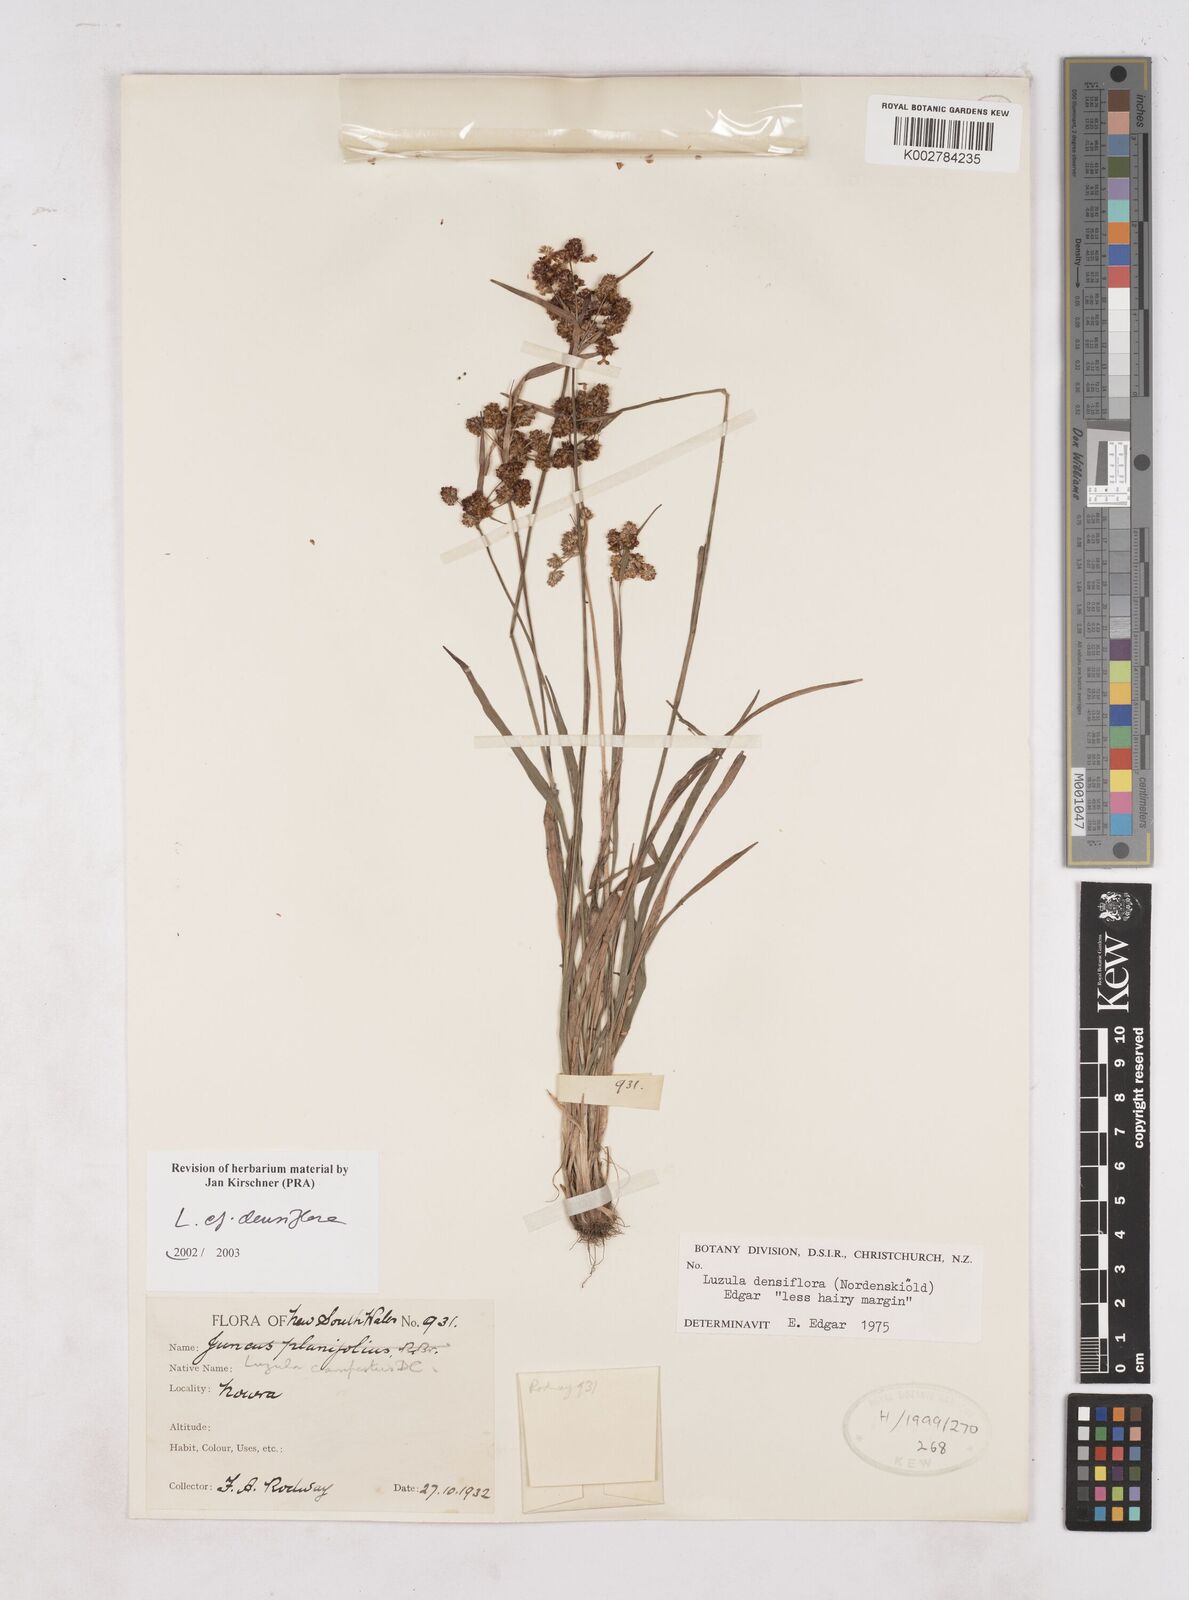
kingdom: Plantae
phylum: Tracheophyta
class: Liliopsida
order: Poales
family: Juncaceae
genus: Luzula
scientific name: Luzula densiflora
